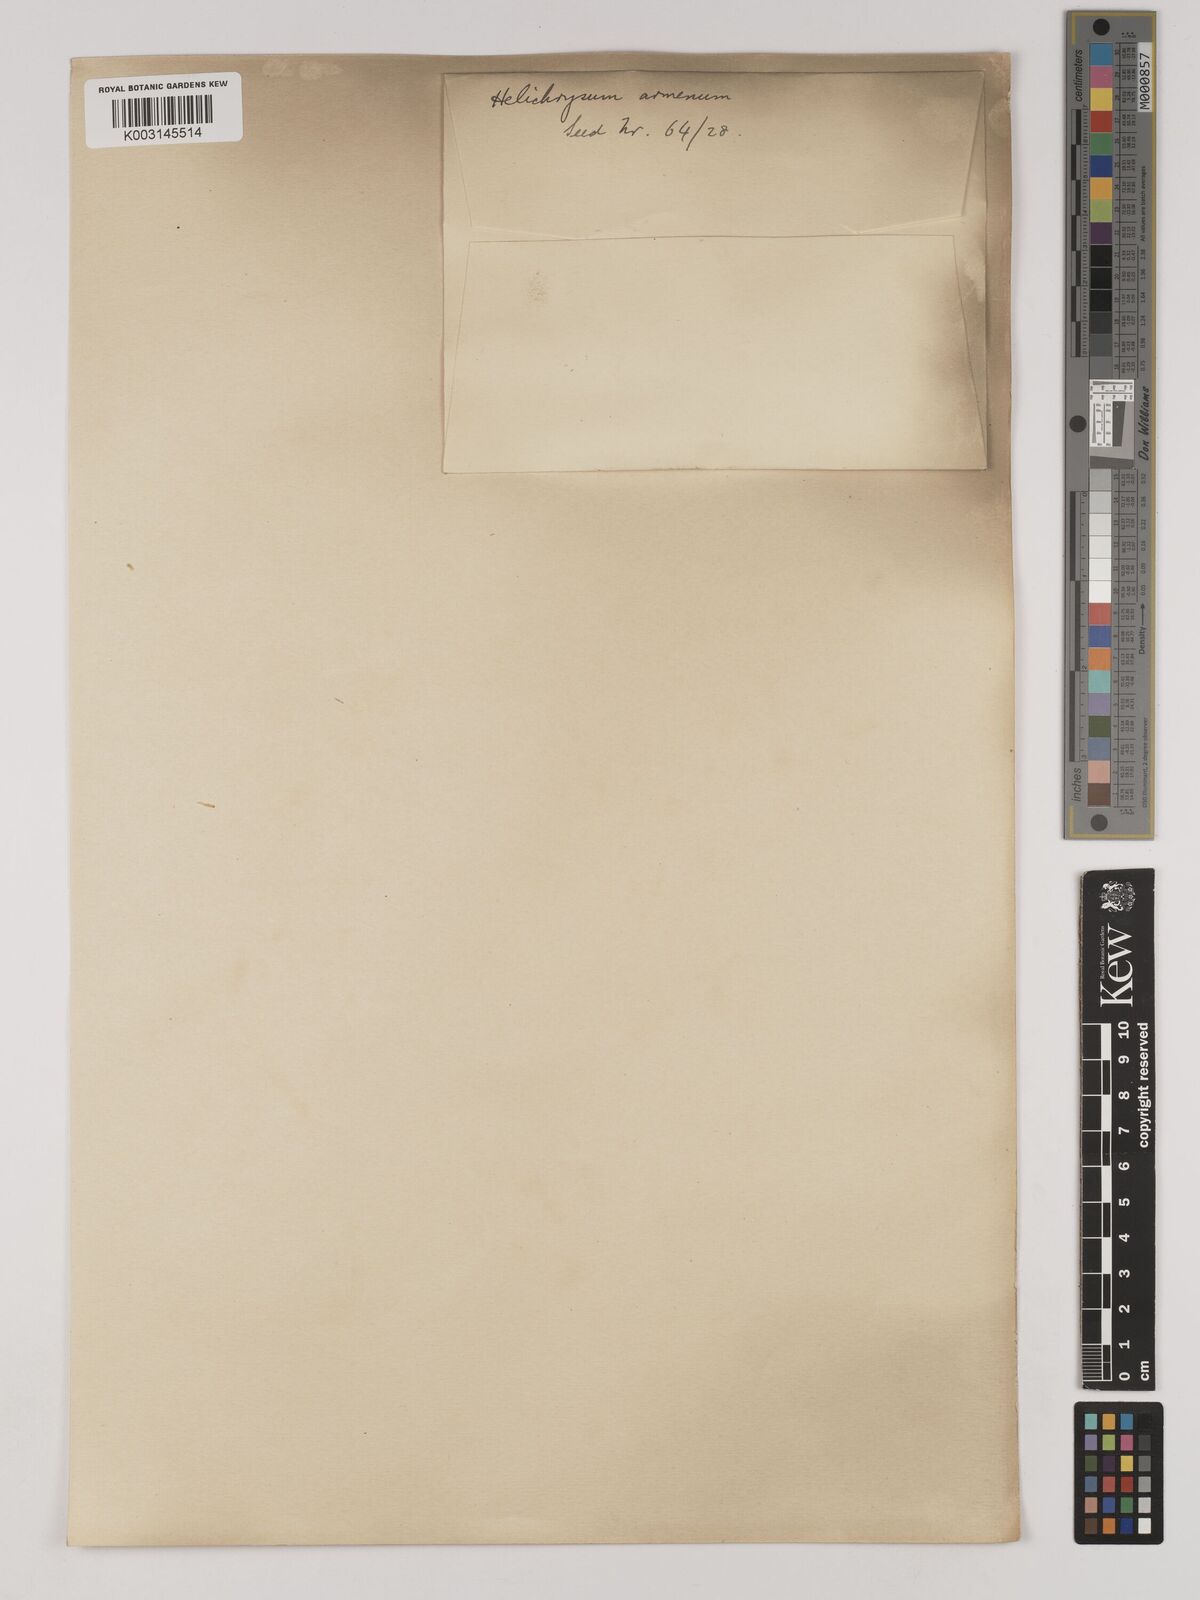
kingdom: Plantae
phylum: Tracheophyta
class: Magnoliopsida
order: Asterales
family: Asteraceae
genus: Helichrysum
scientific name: Helichrysum armenium
